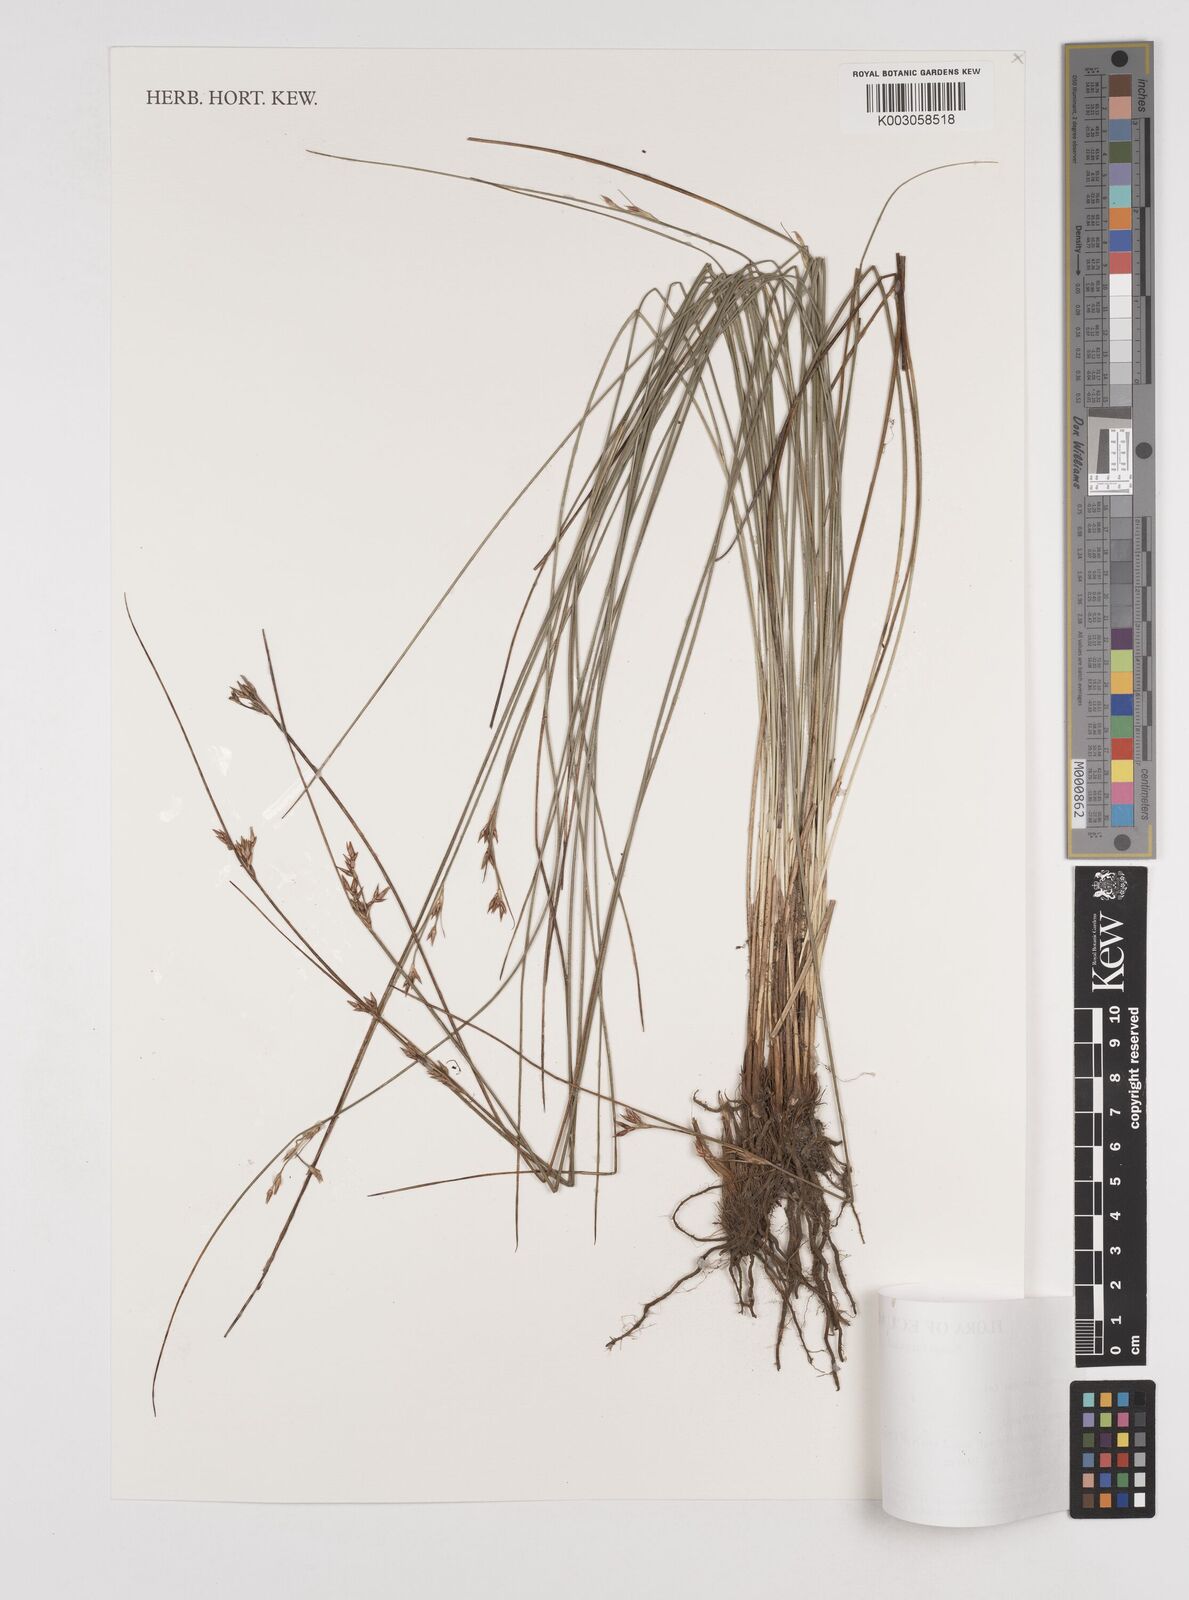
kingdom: Plantae
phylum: Tracheophyta
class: Liliopsida
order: Poales
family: Juncaceae
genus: Juncus
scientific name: Juncus imbricatus
